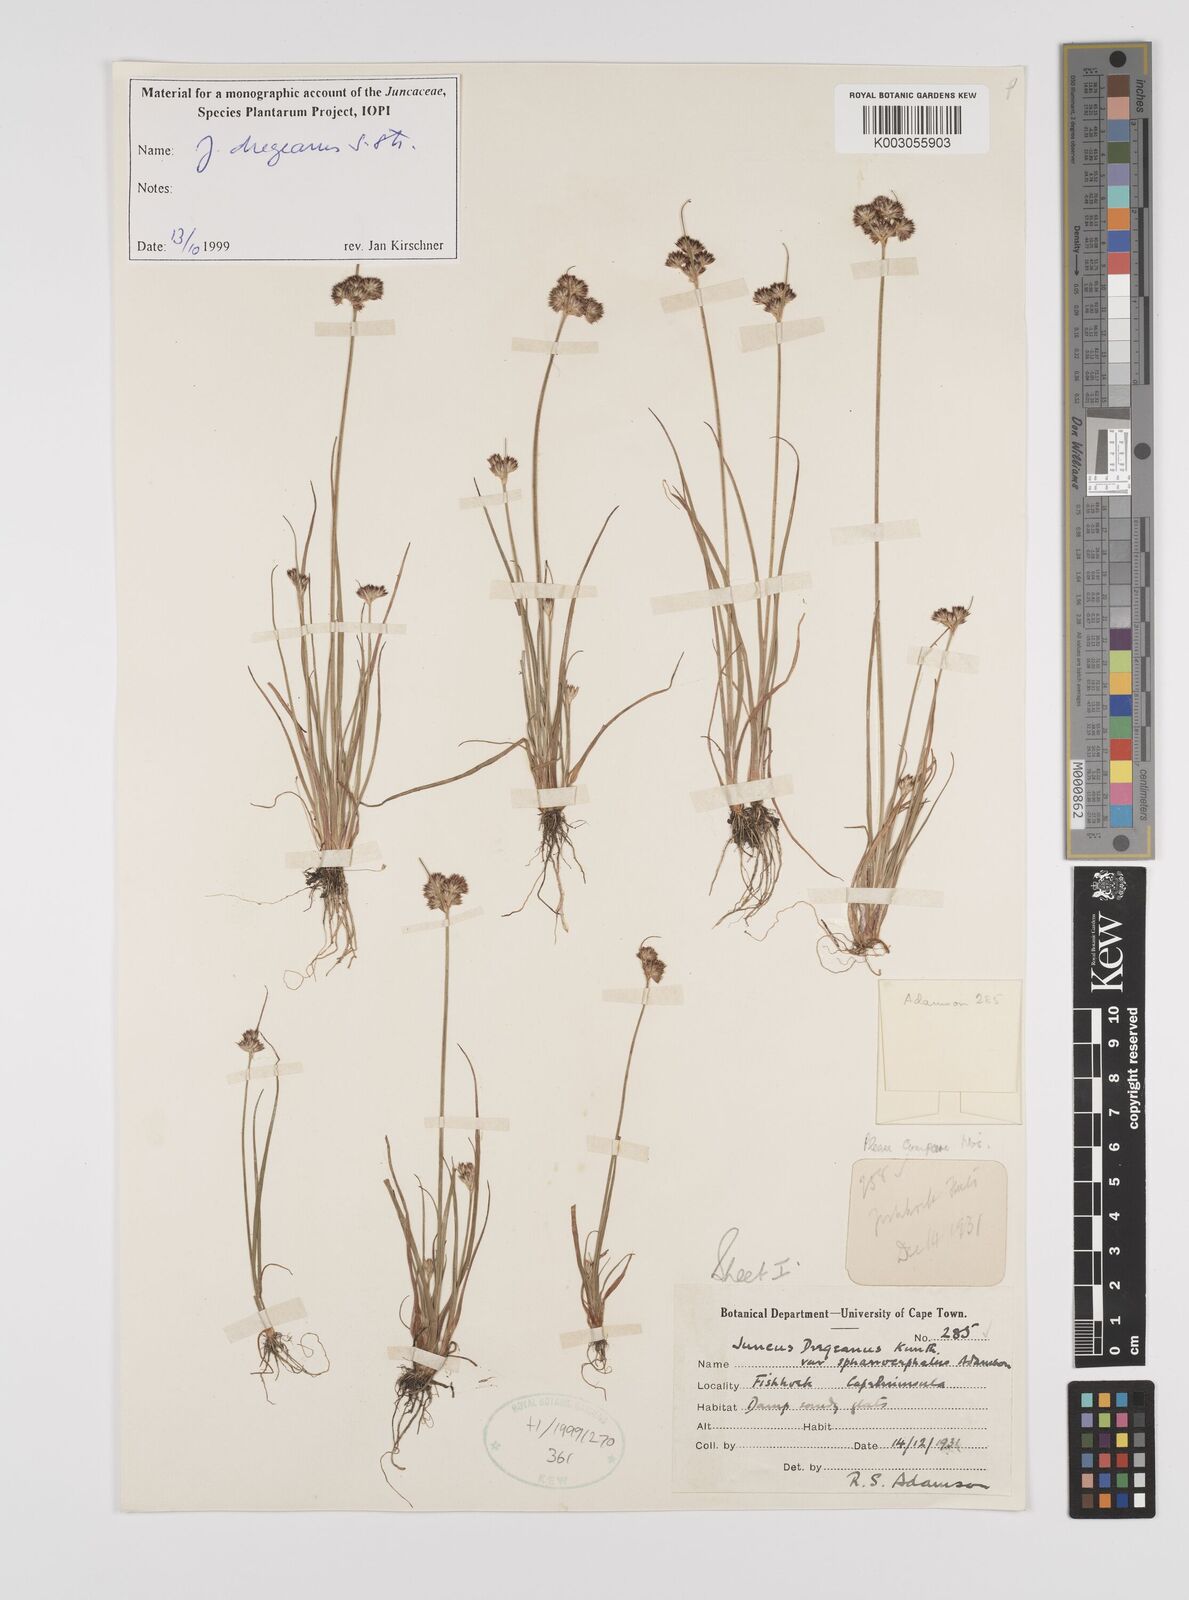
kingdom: Plantae
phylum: Tracheophyta
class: Liliopsida
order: Poales
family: Juncaceae
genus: Juncus
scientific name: Juncus dregeanus
